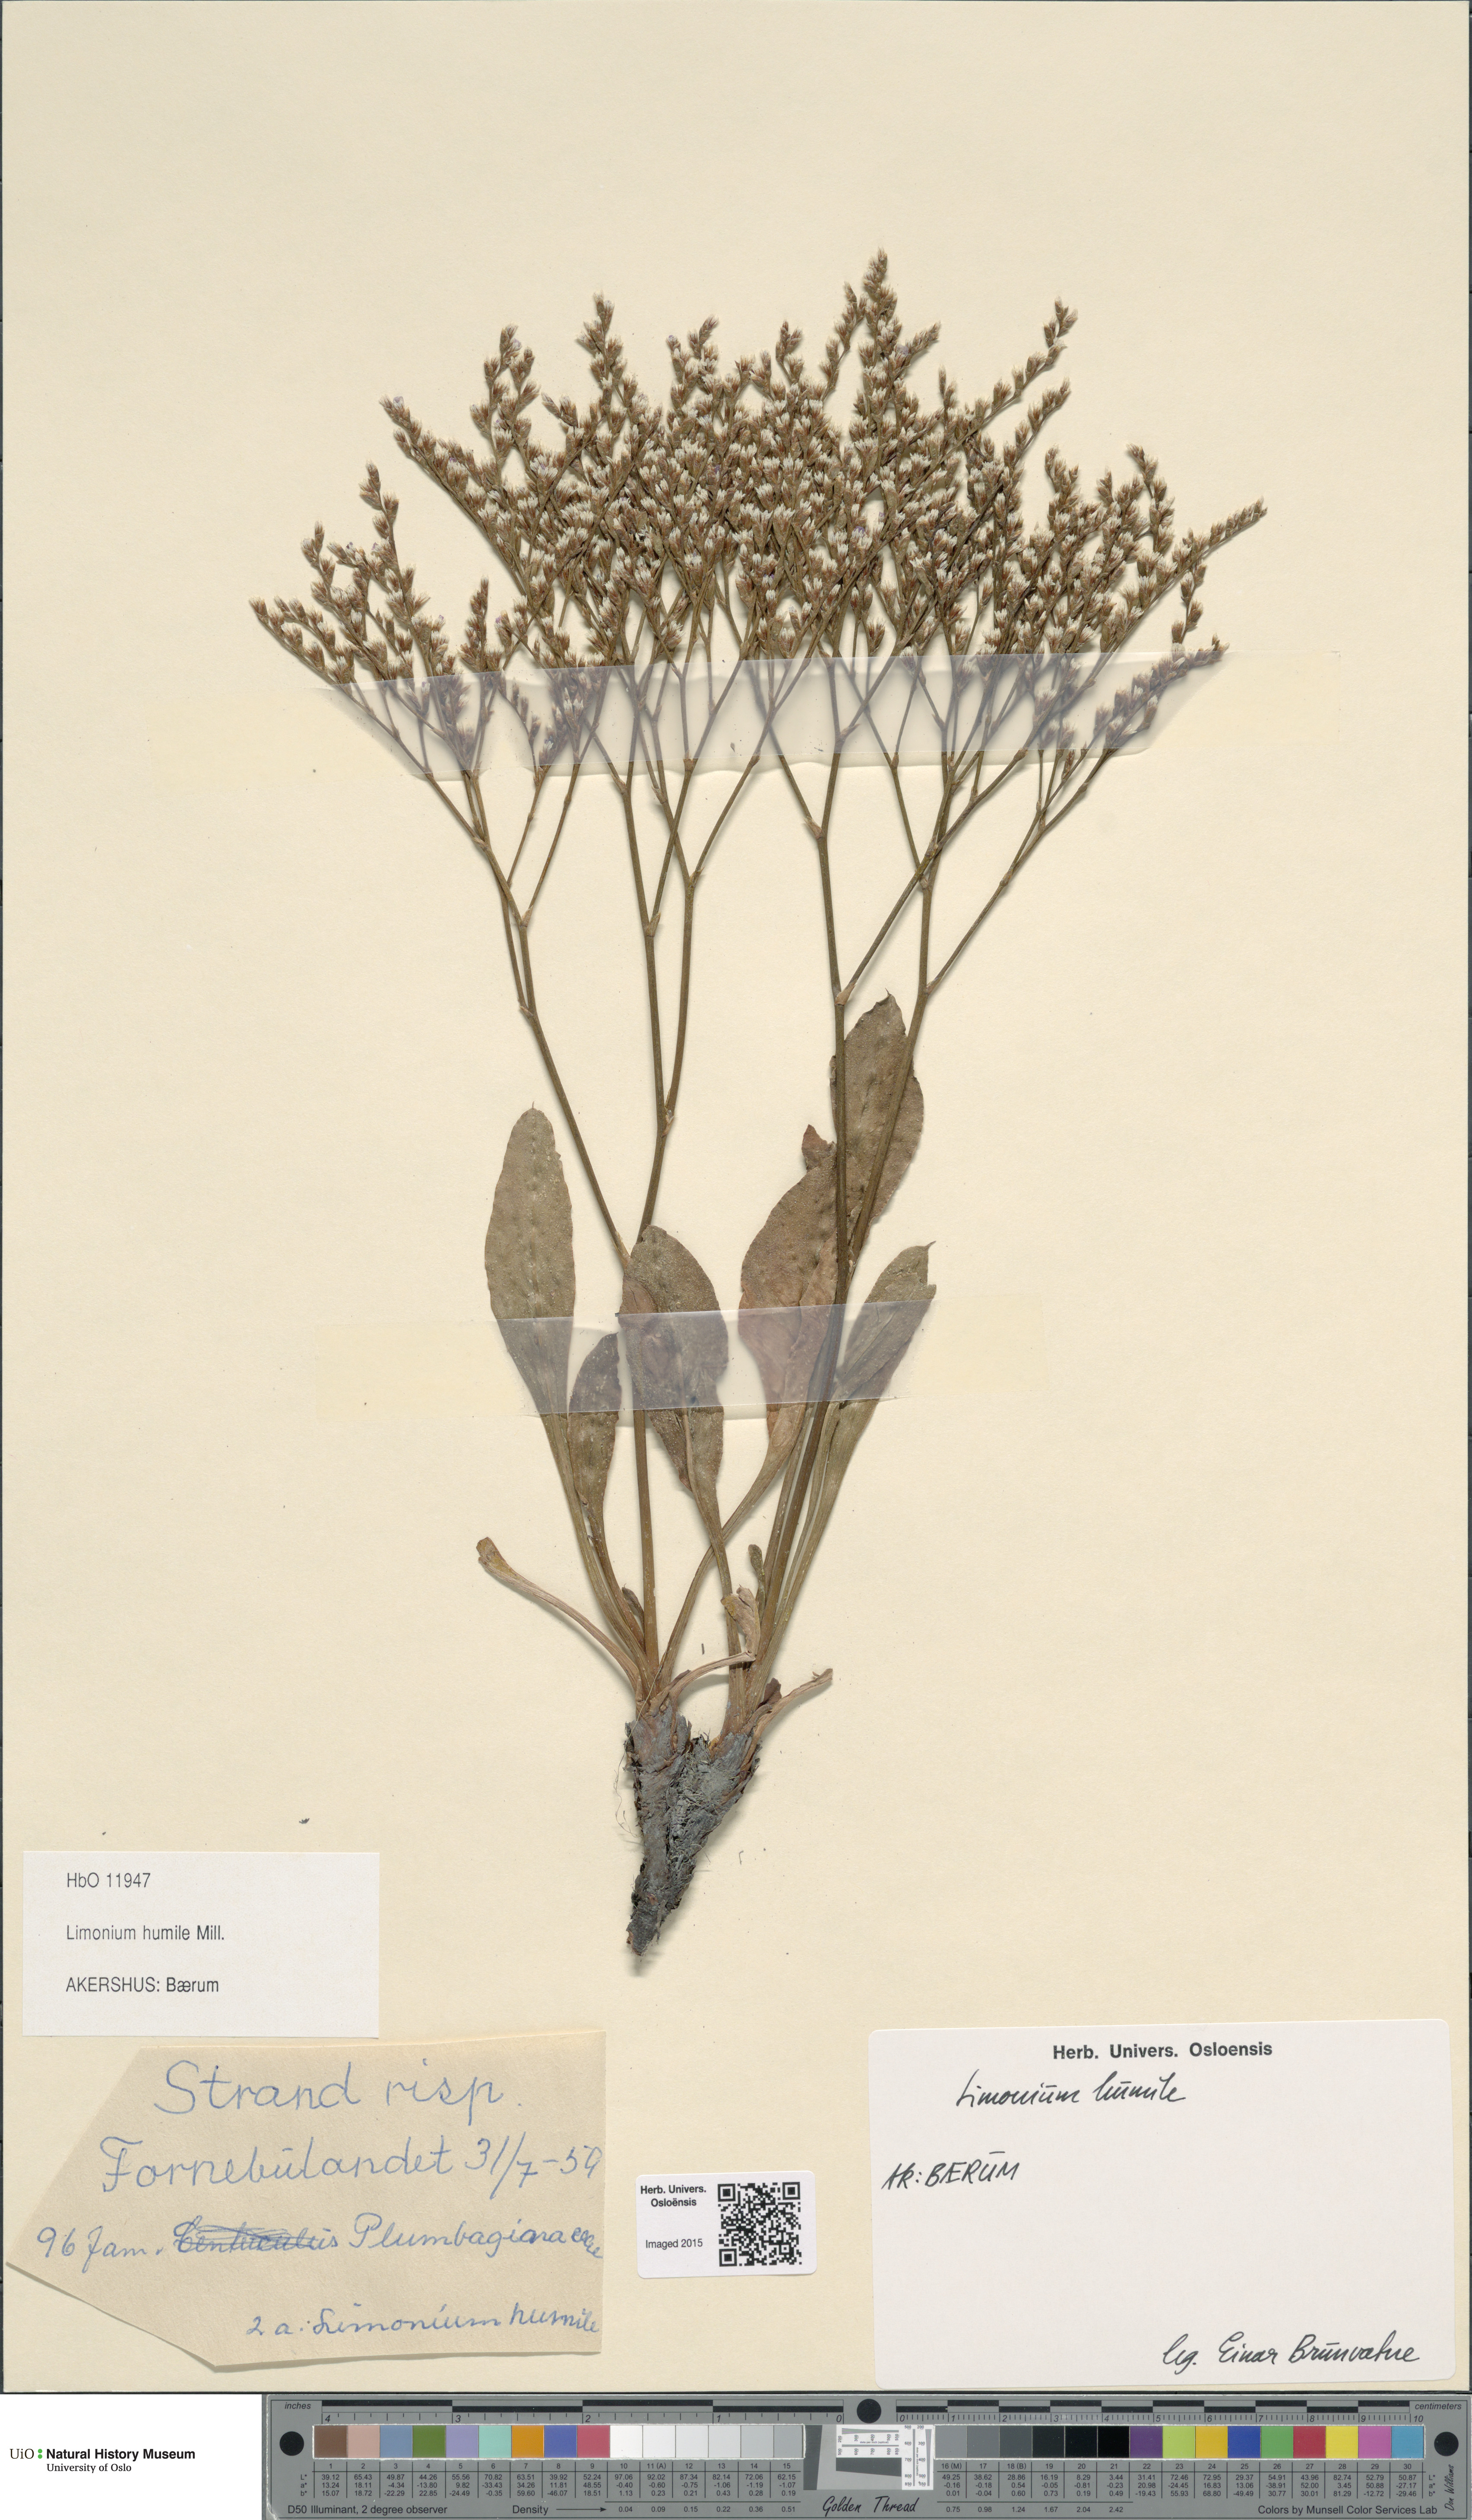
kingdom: Plantae
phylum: Tracheophyta
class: Magnoliopsida
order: Caryophyllales
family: Plumbaginaceae
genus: Limonium
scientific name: Limonium humile
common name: Lax-flowered sea-lavender
